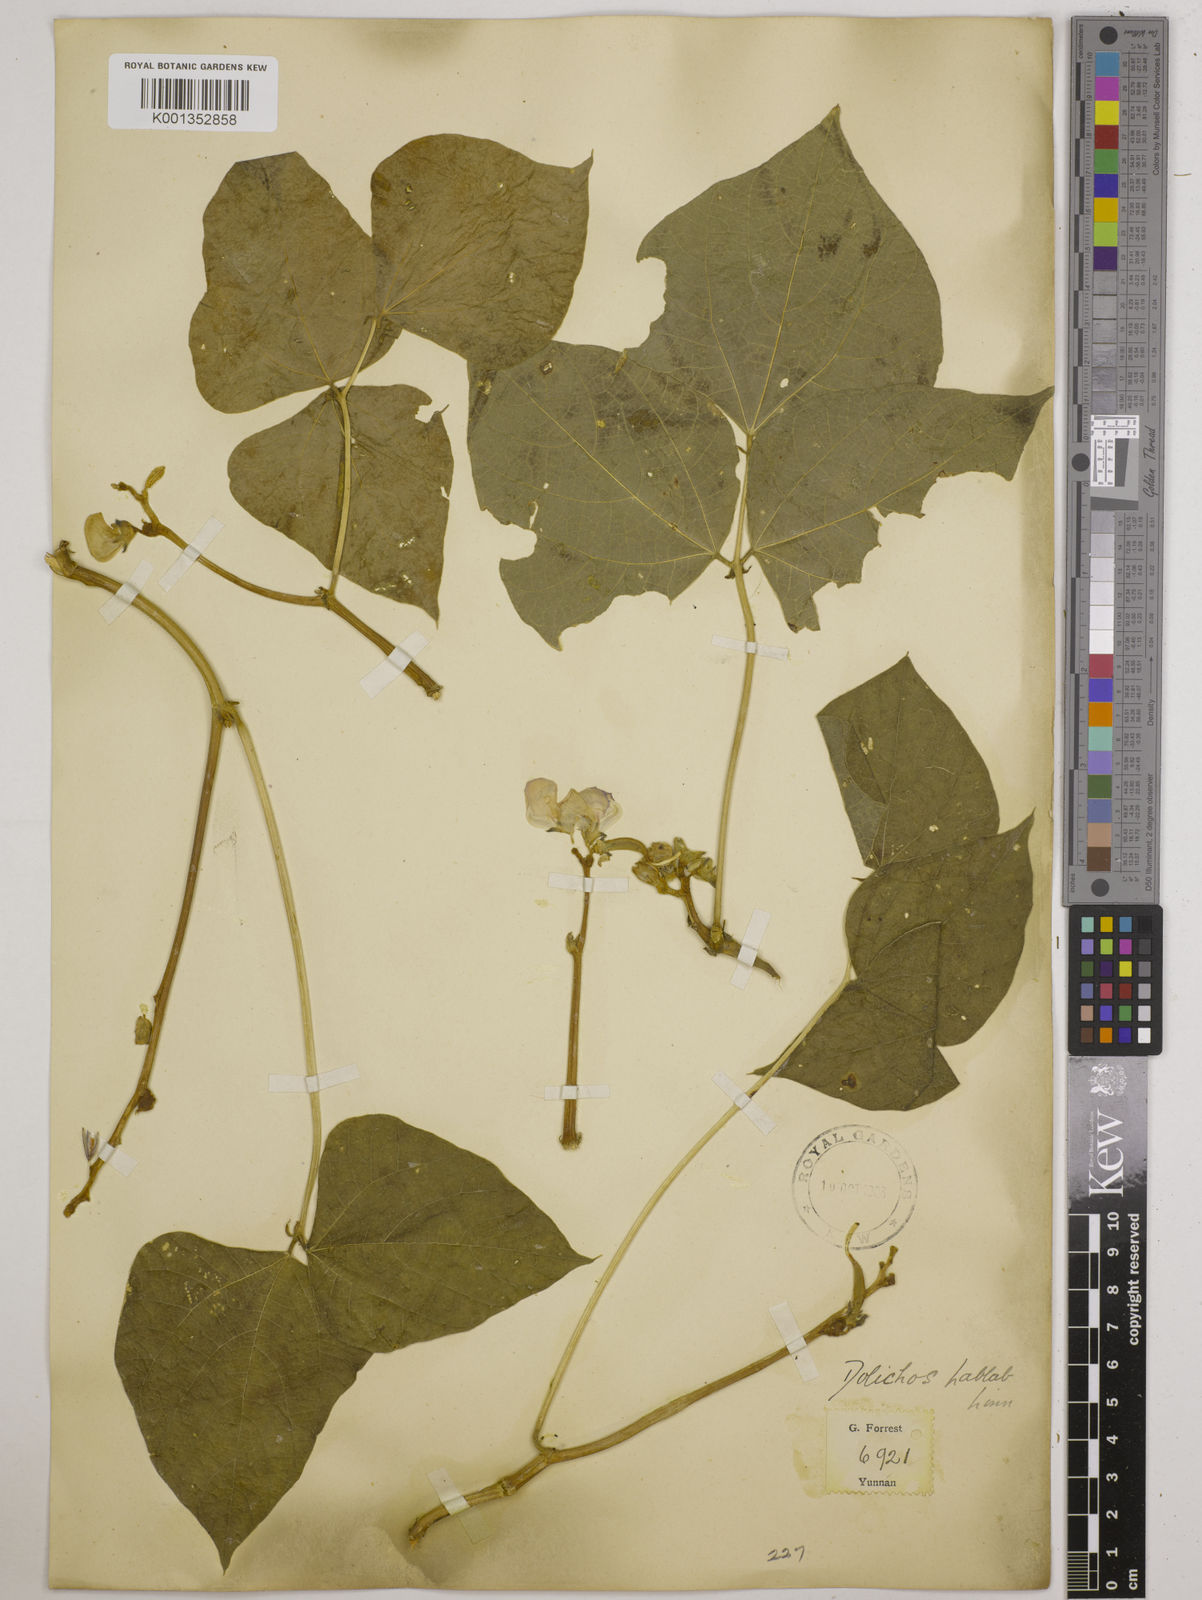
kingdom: Plantae
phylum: Tracheophyta
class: Magnoliopsida
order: Fabales
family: Fabaceae
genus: Lablab
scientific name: Lablab purpureus
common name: Lablab-bean
